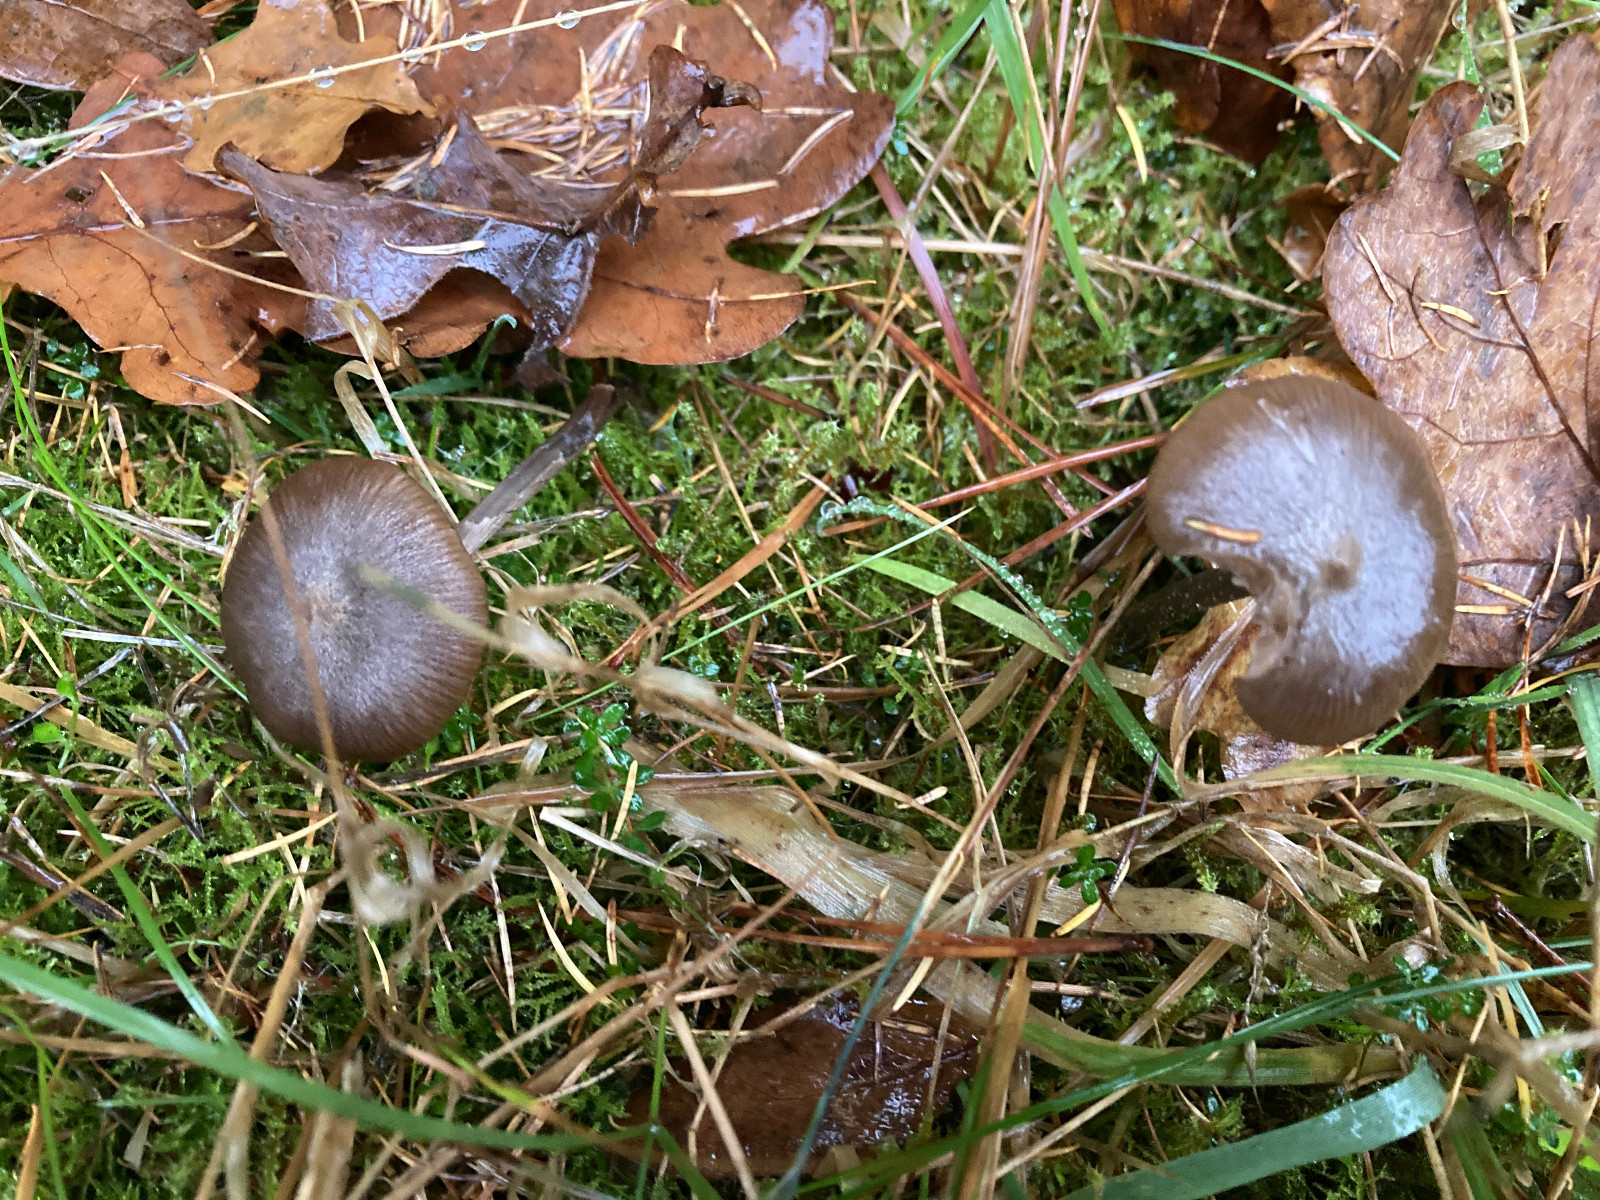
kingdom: Fungi
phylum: Basidiomycota
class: Agaricomycetes
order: Agaricales
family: Entolomataceae
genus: Entoloma
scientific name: Entoloma jubatum
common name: ruskællet rødblad
